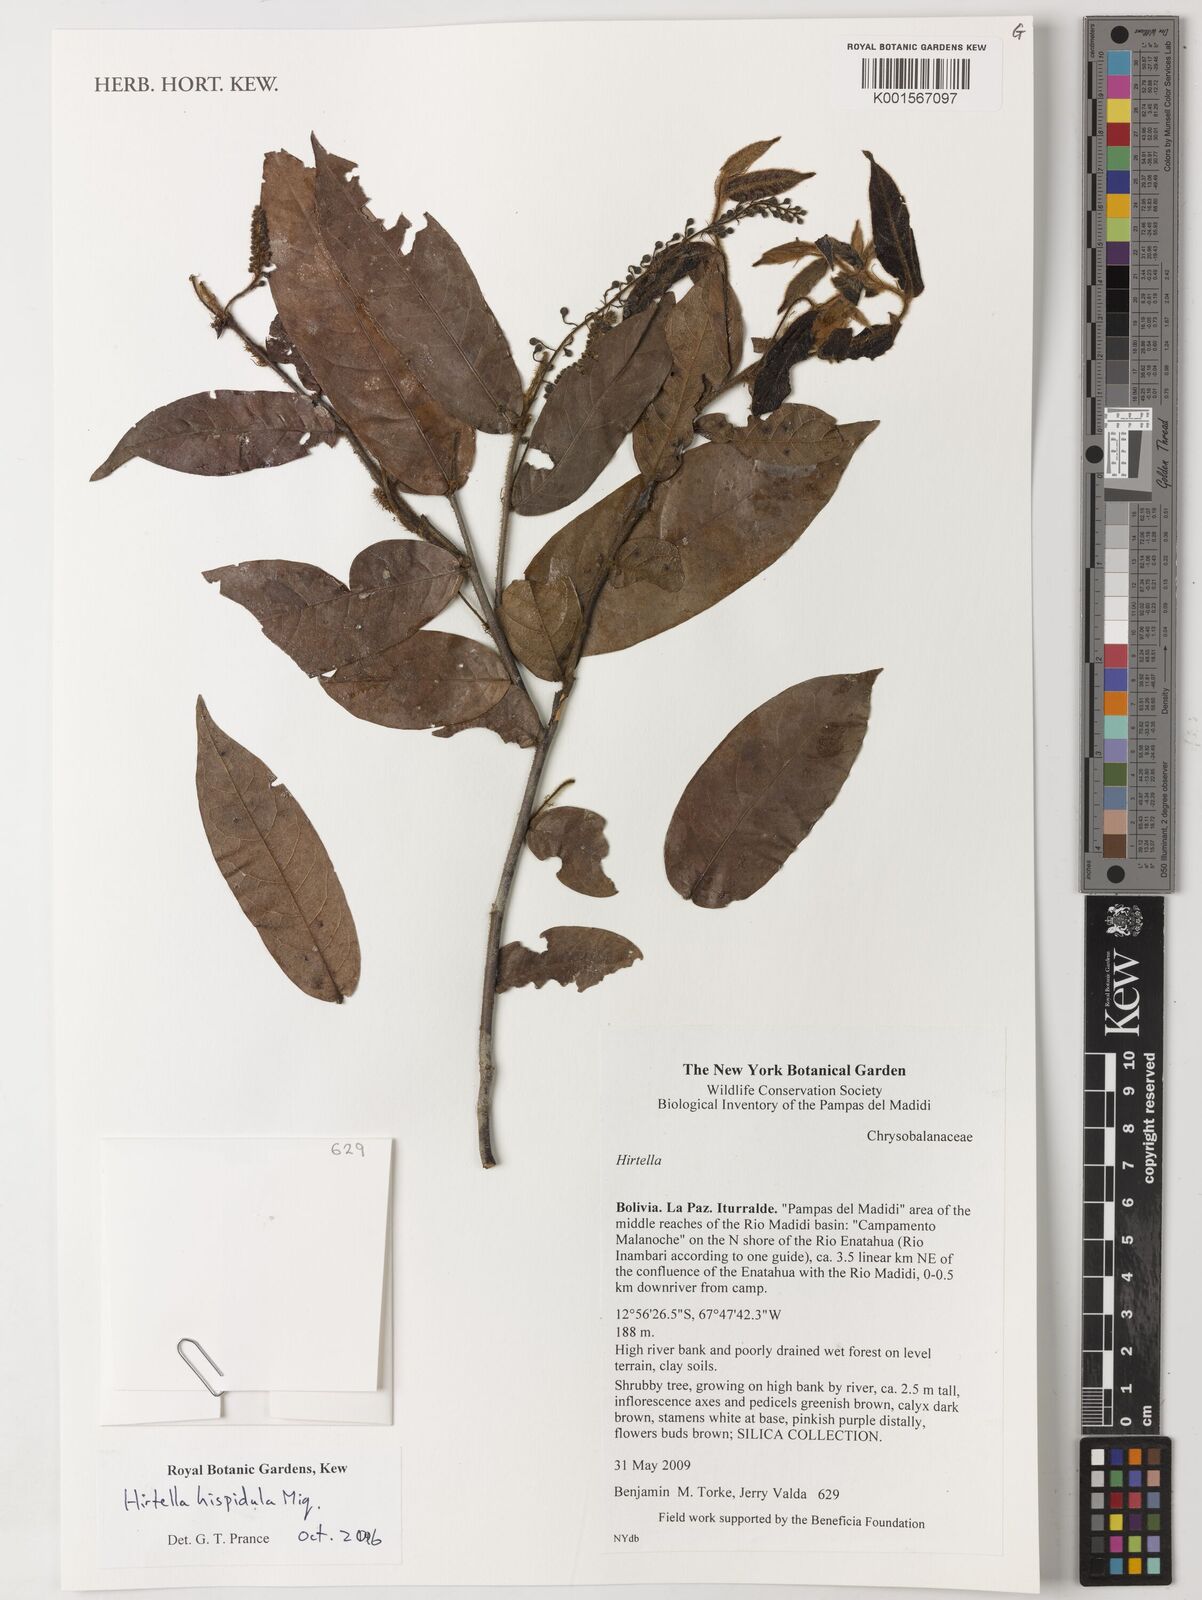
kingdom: Plantae
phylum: Tracheophyta
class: Magnoliopsida
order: Malpighiales
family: Chrysobalanaceae
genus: Hirtella
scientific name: Hirtella hispidula
